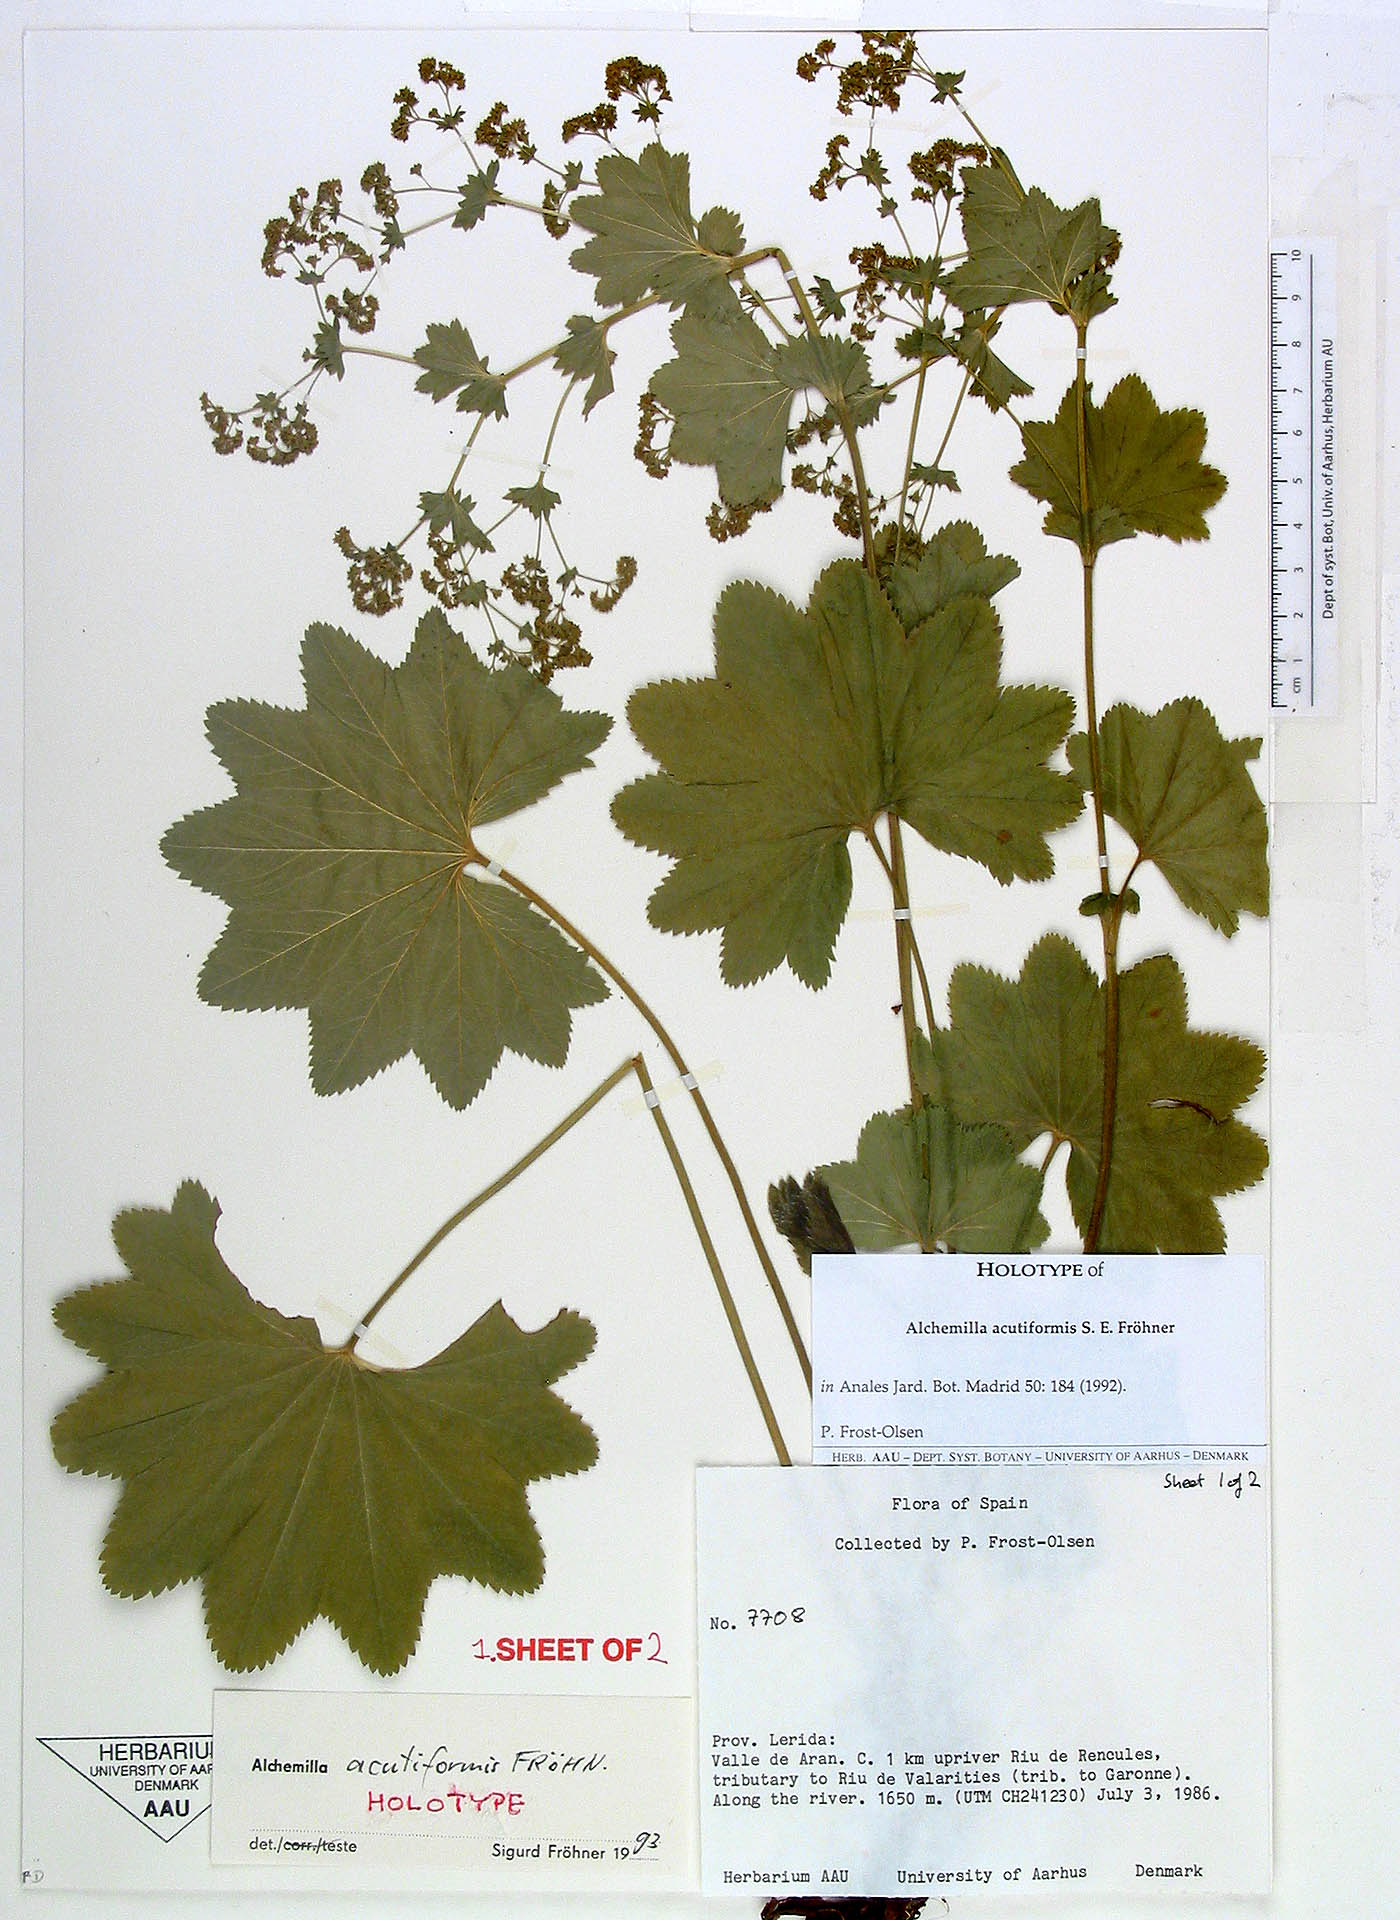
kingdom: Plantae
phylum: Tracheophyta
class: Magnoliopsida
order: Rosales
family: Rosaceae
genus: Alchemilla
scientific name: Alchemilla acutiformis
